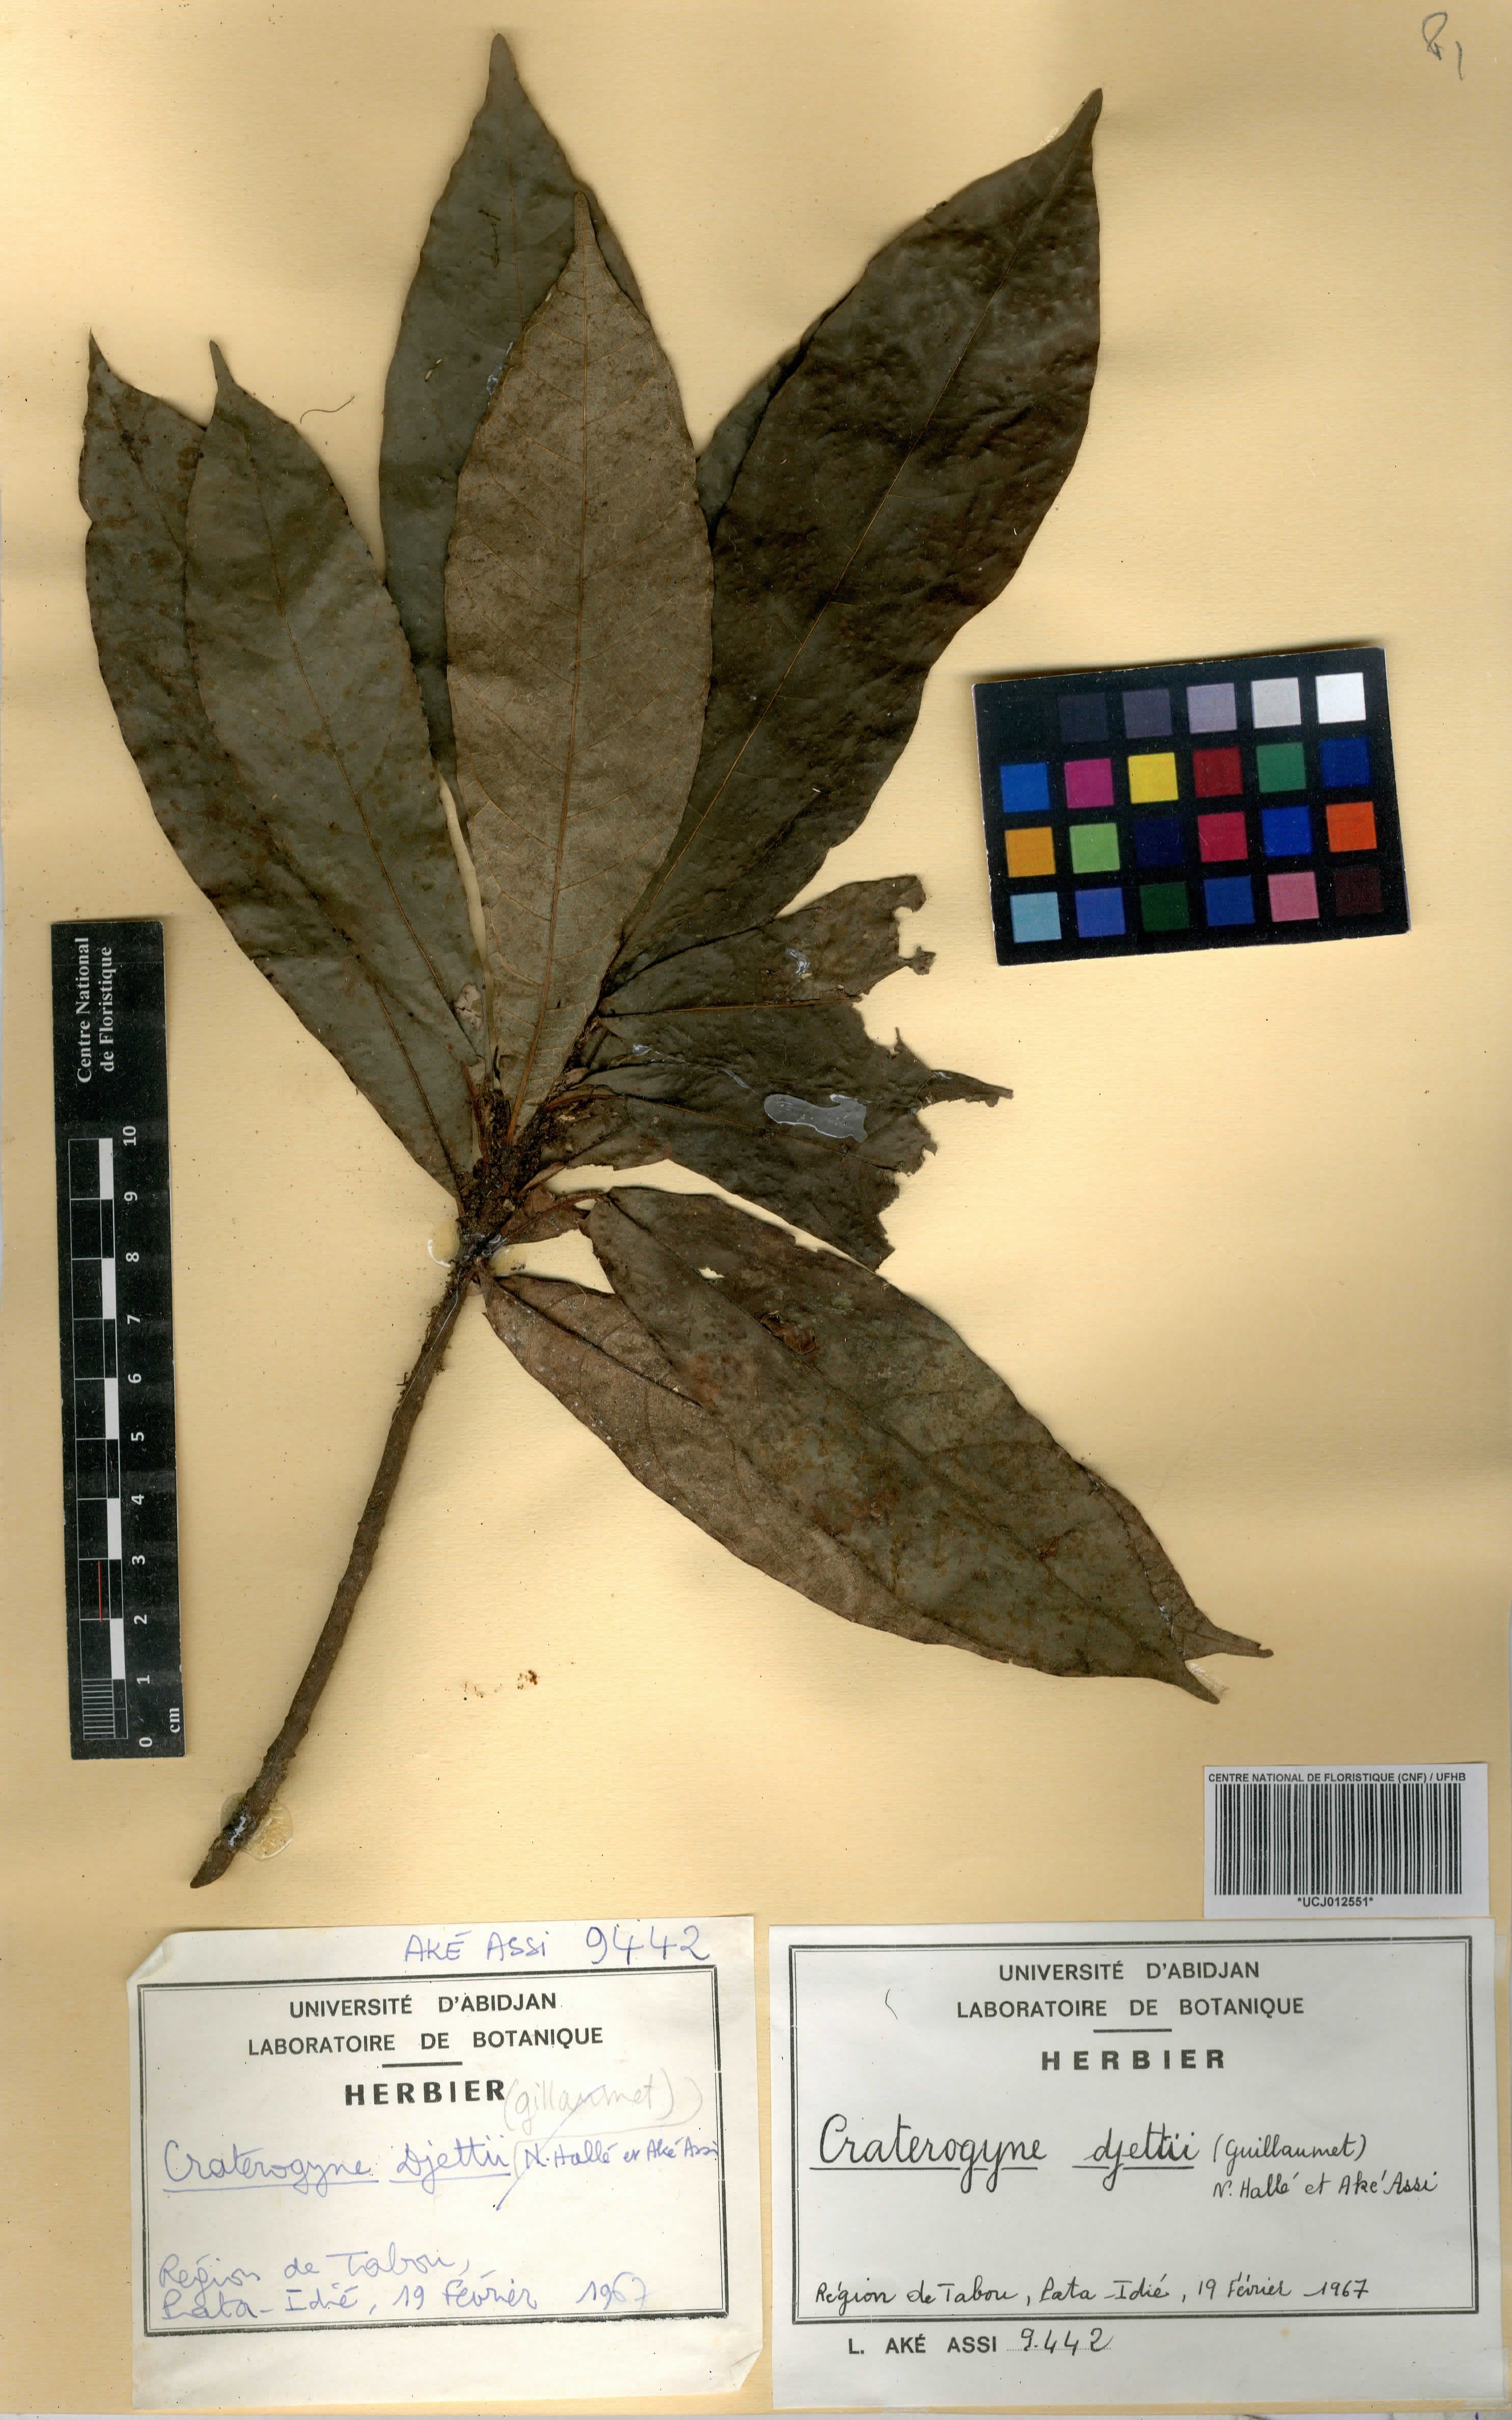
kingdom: Plantae
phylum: Tracheophyta
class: Magnoliopsida
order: Rosales
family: Moraceae
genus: Dorstenia
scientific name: Dorstenia djettii
